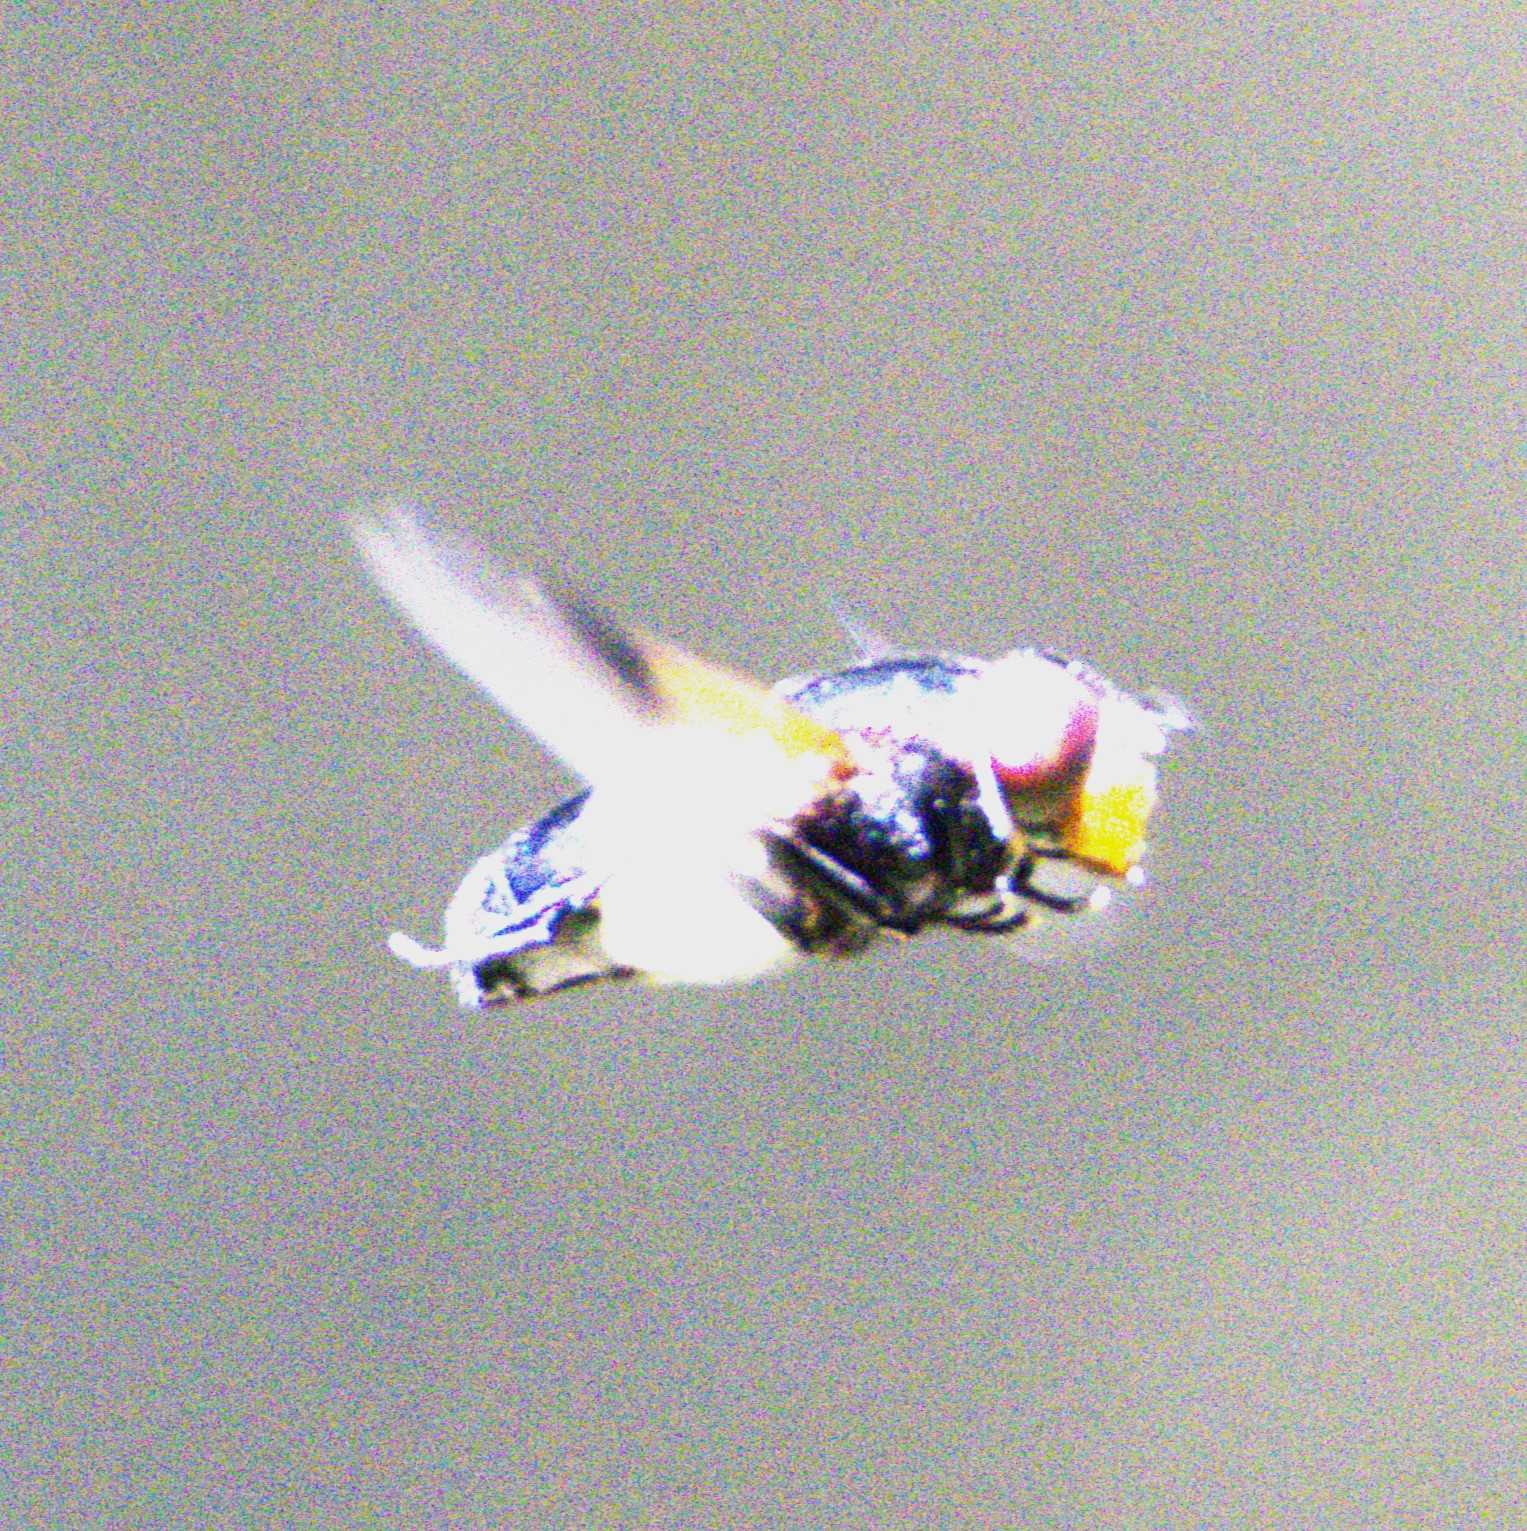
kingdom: Animalia
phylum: Arthropoda
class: Insecta
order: Diptera
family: Syrphidae
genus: Volucella
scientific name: Volucella pellucens
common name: Hvidbåndet humlesvirreflue
